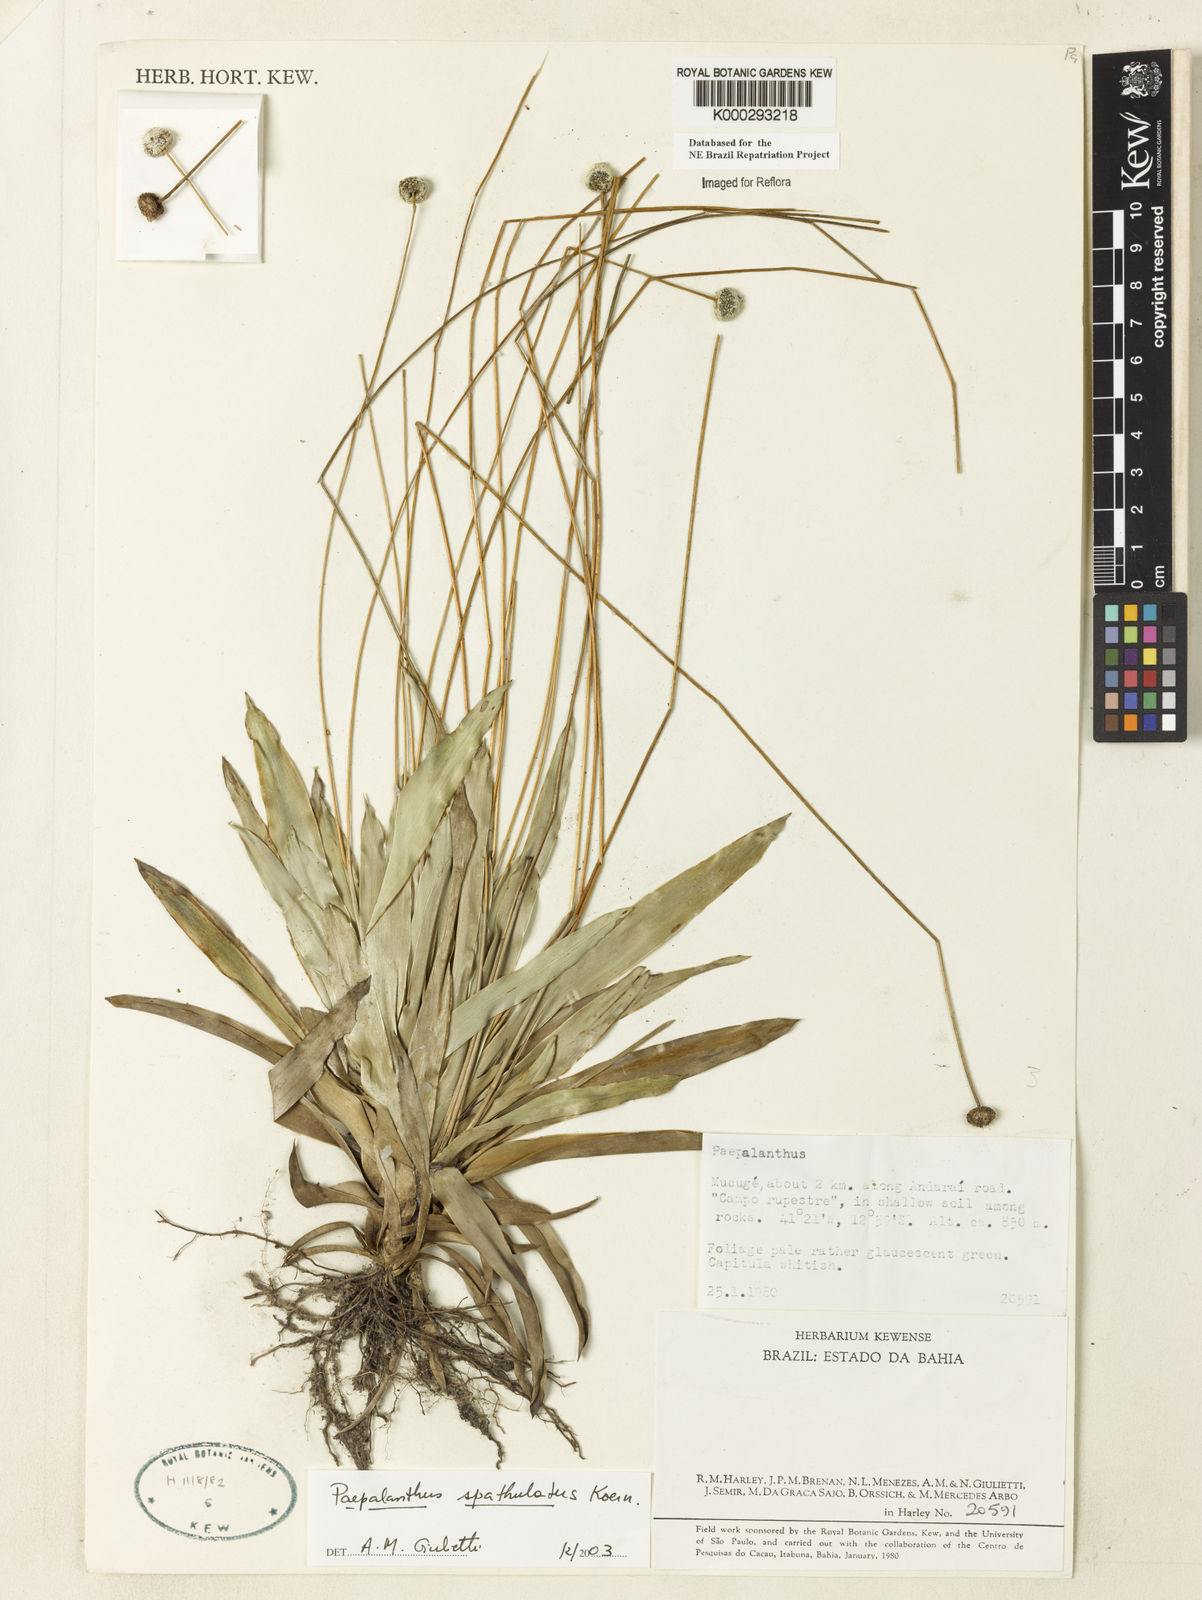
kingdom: Plantae
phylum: Tracheophyta
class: Liliopsida
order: Poales
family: Eriocaulaceae
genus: Paepalanthus
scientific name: Paepalanthus
